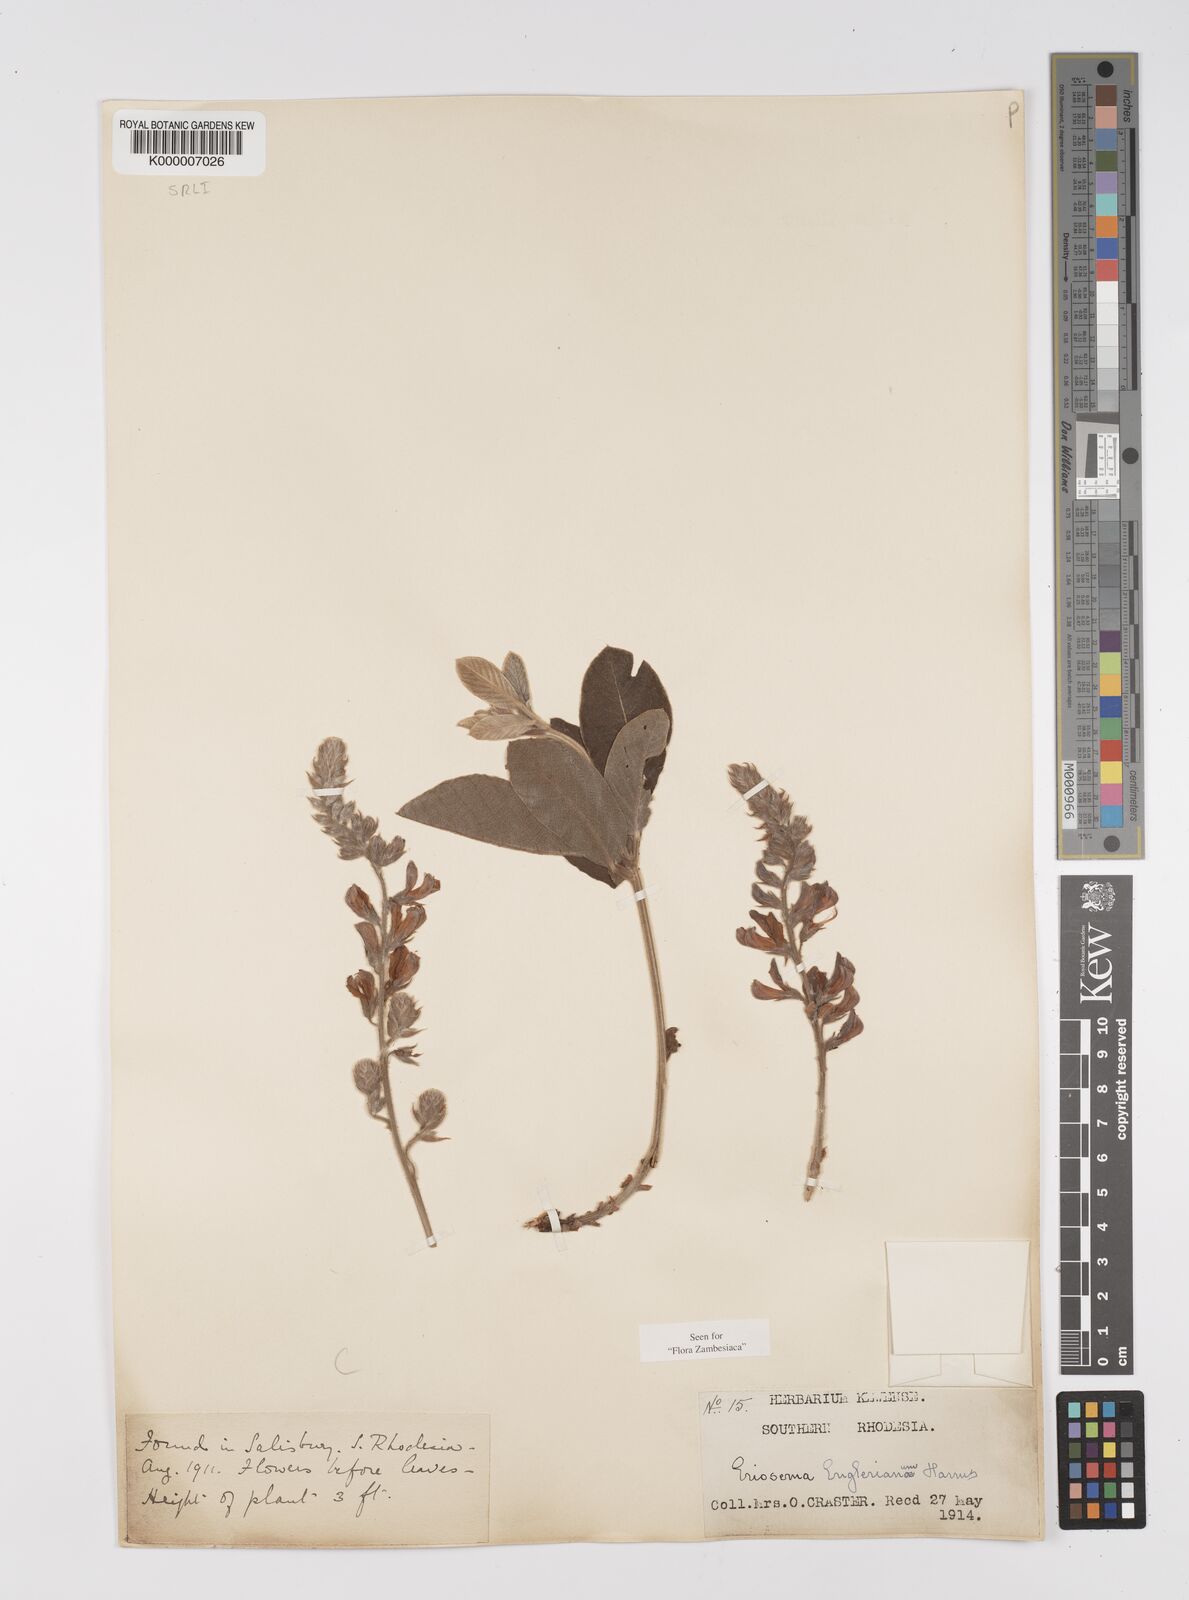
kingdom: Plantae
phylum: Tracheophyta
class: Magnoliopsida
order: Fabales
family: Fabaceae
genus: Eriosema
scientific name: Eriosema englerianum
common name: Blue bush
